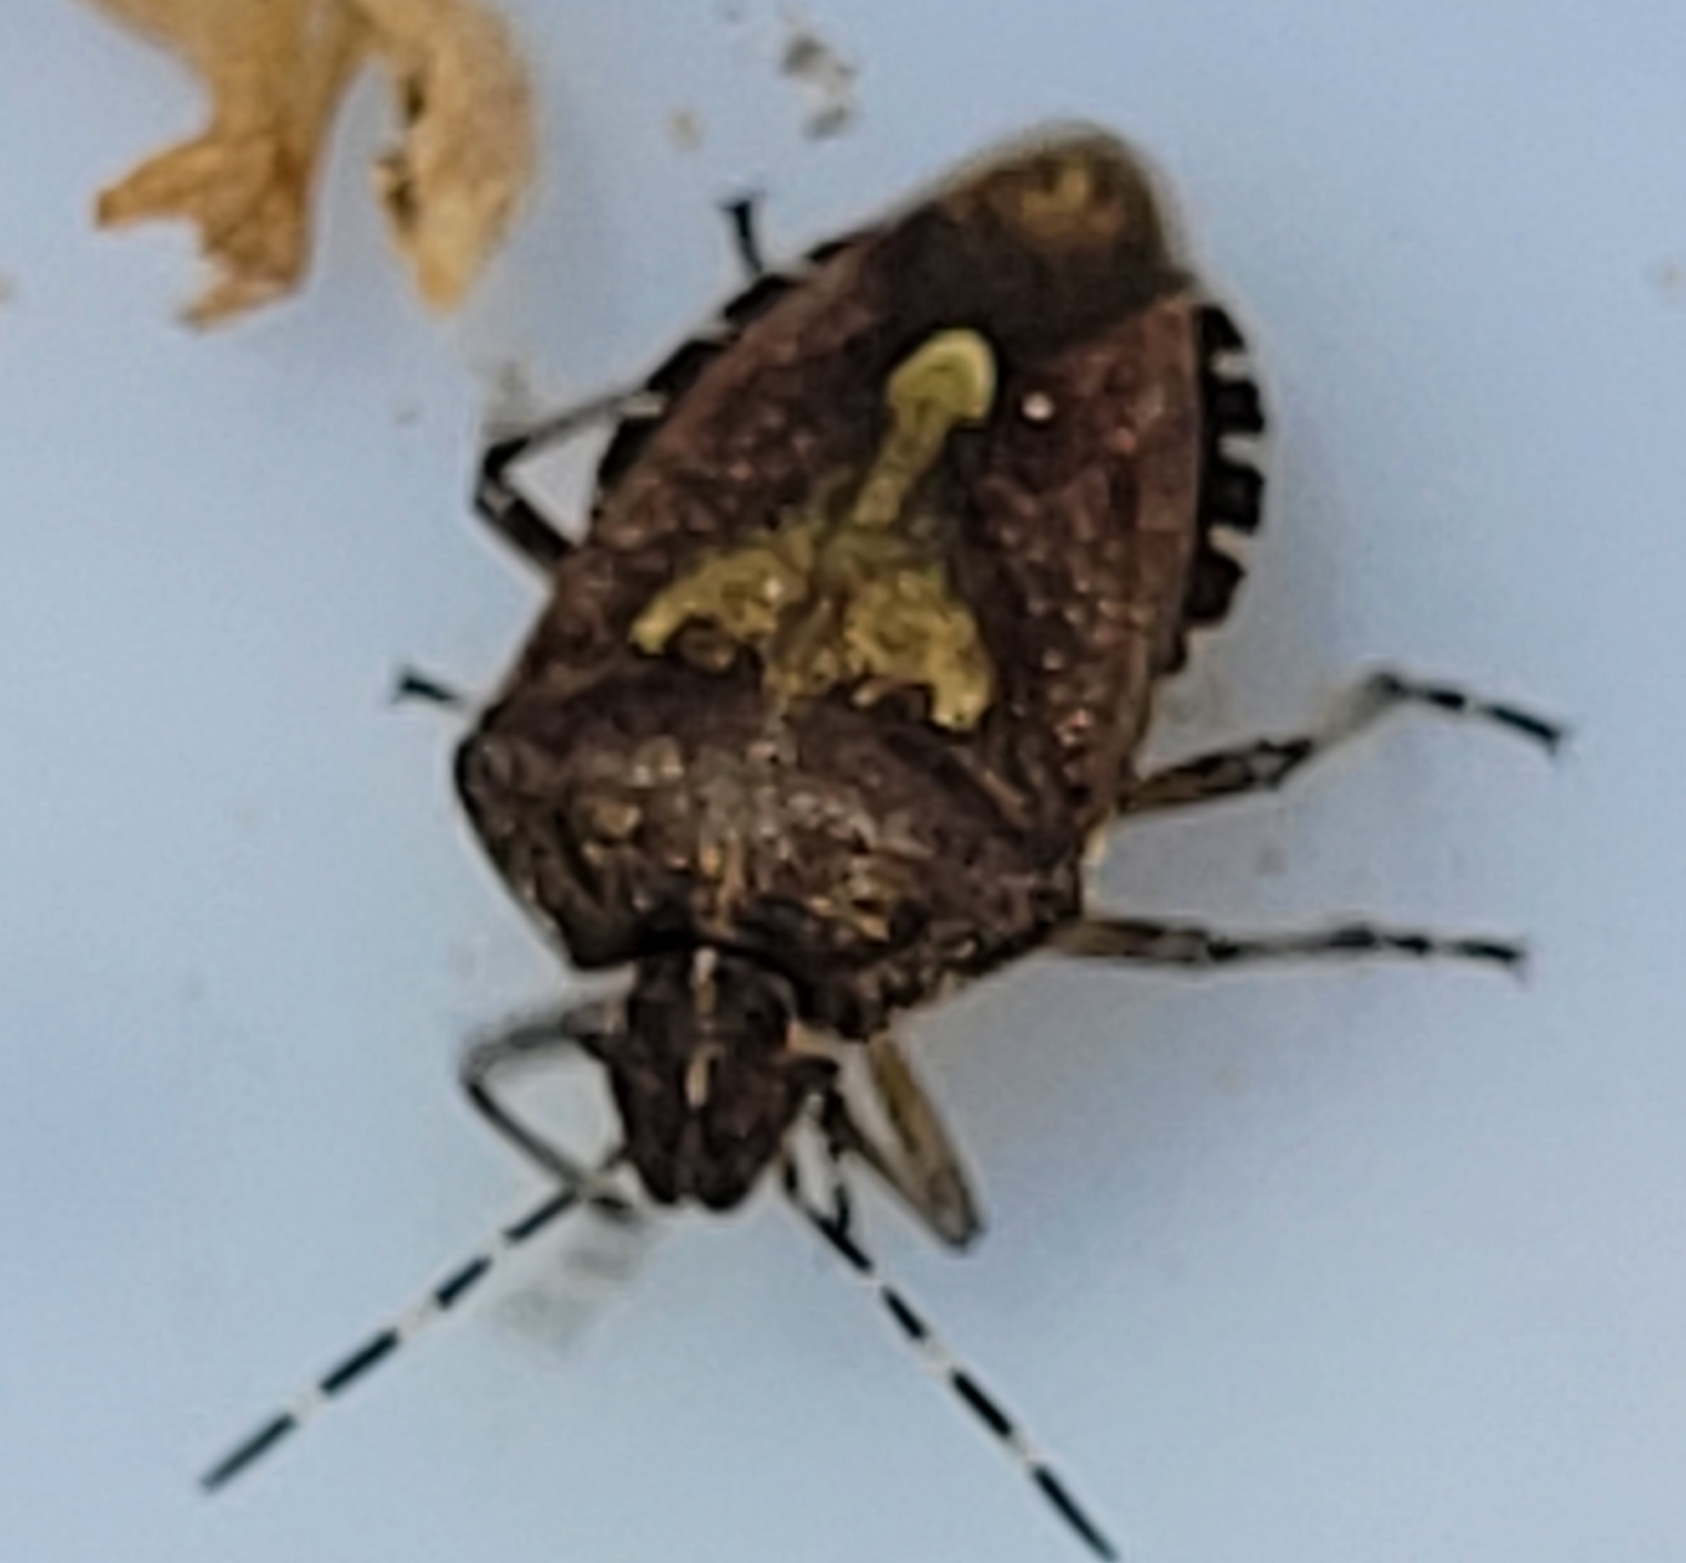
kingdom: Animalia
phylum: Arthropoda
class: Insecta
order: Hemiptera
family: Pentatomidae
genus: Dolycoris
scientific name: Dolycoris baccarum
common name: Almindelig bærtæge
